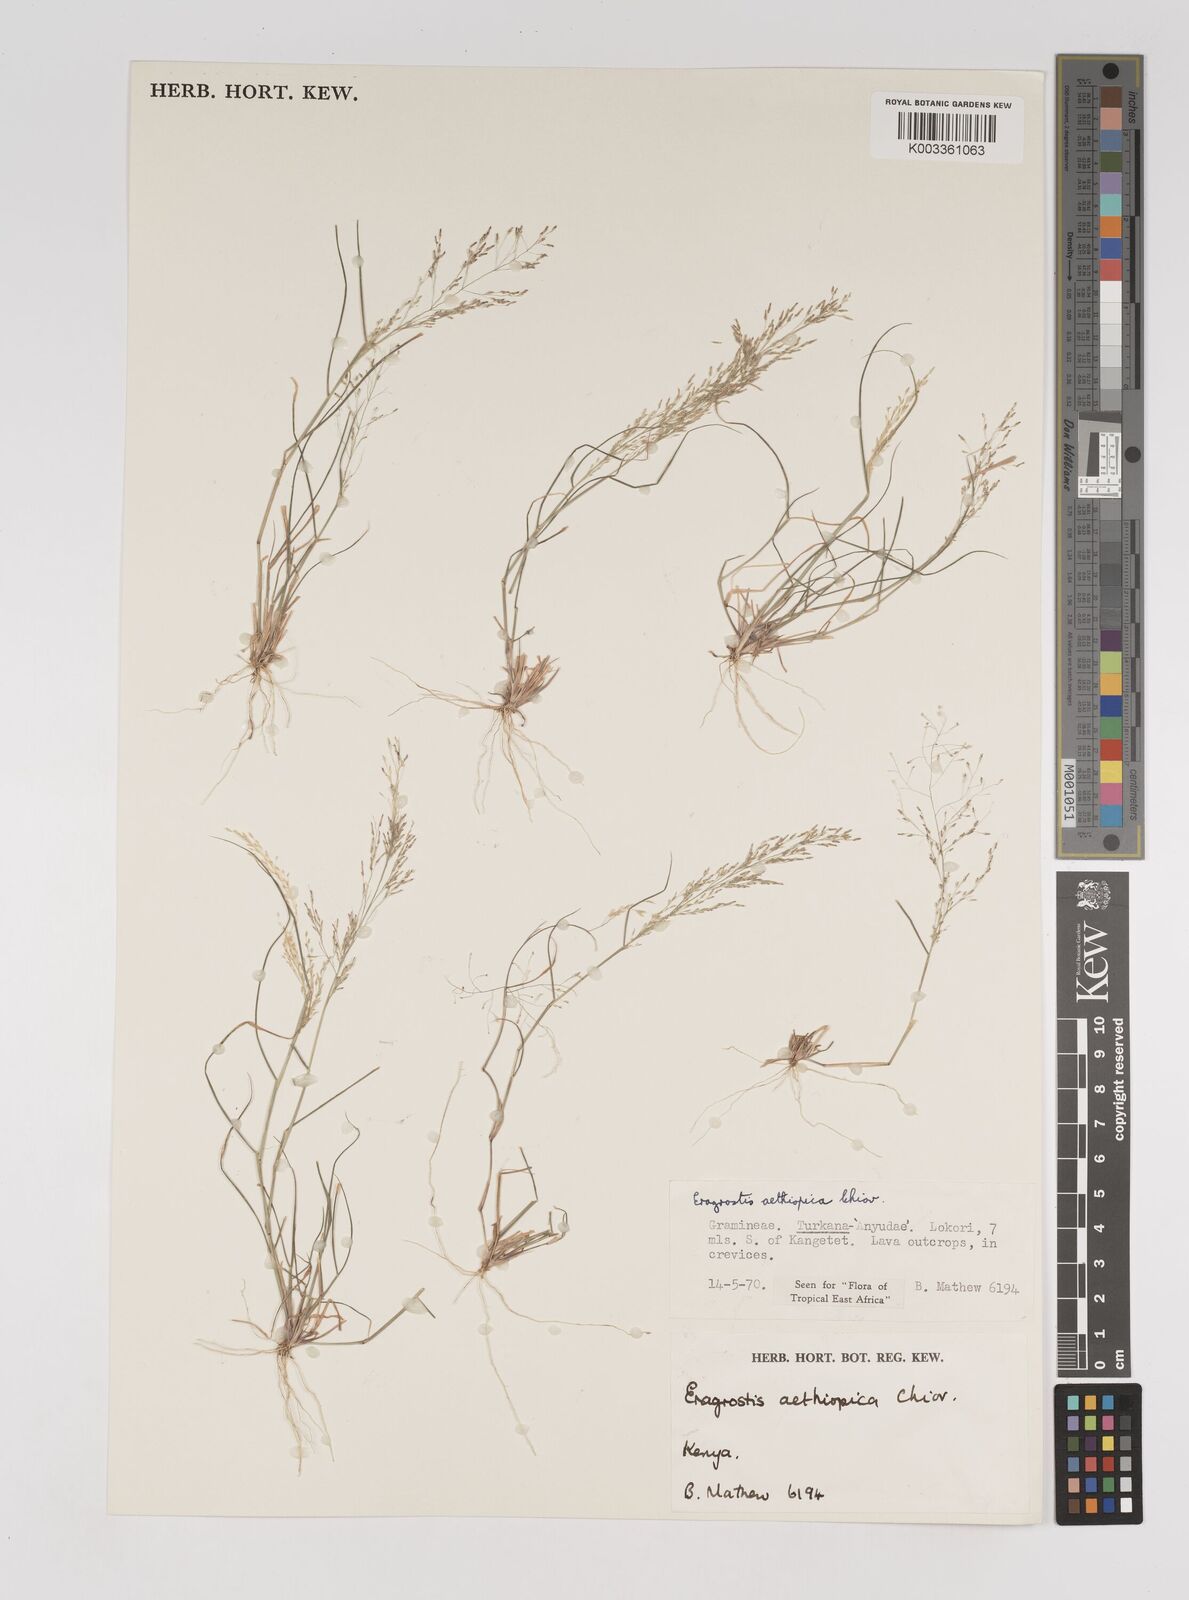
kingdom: Plantae
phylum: Tracheophyta
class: Liliopsida
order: Poales
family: Poaceae
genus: Eragrostis
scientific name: Eragrostis aethiopica
